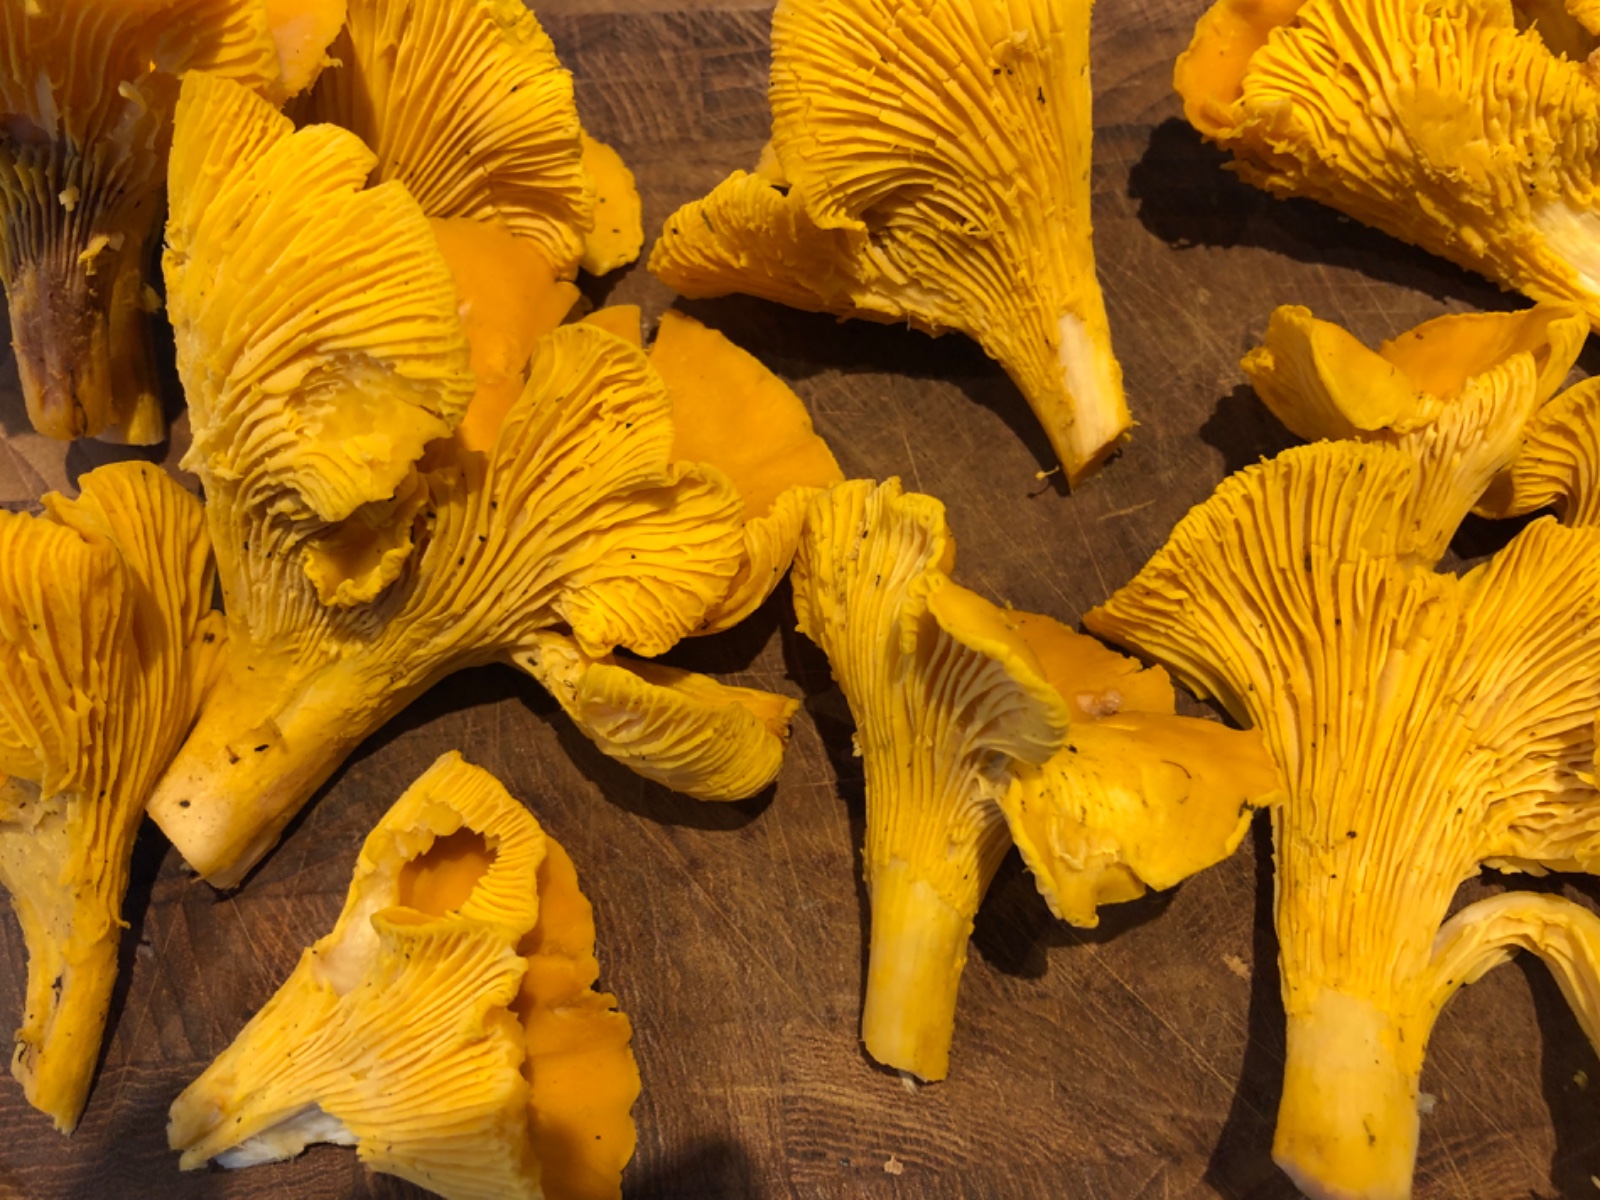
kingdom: Fungi
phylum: Basidiomycota
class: Agaricomycetes
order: Cantharellales
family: Hydnaceae
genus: Cantharellus
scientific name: Cantharellus cibarius
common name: almindelig kantarel
